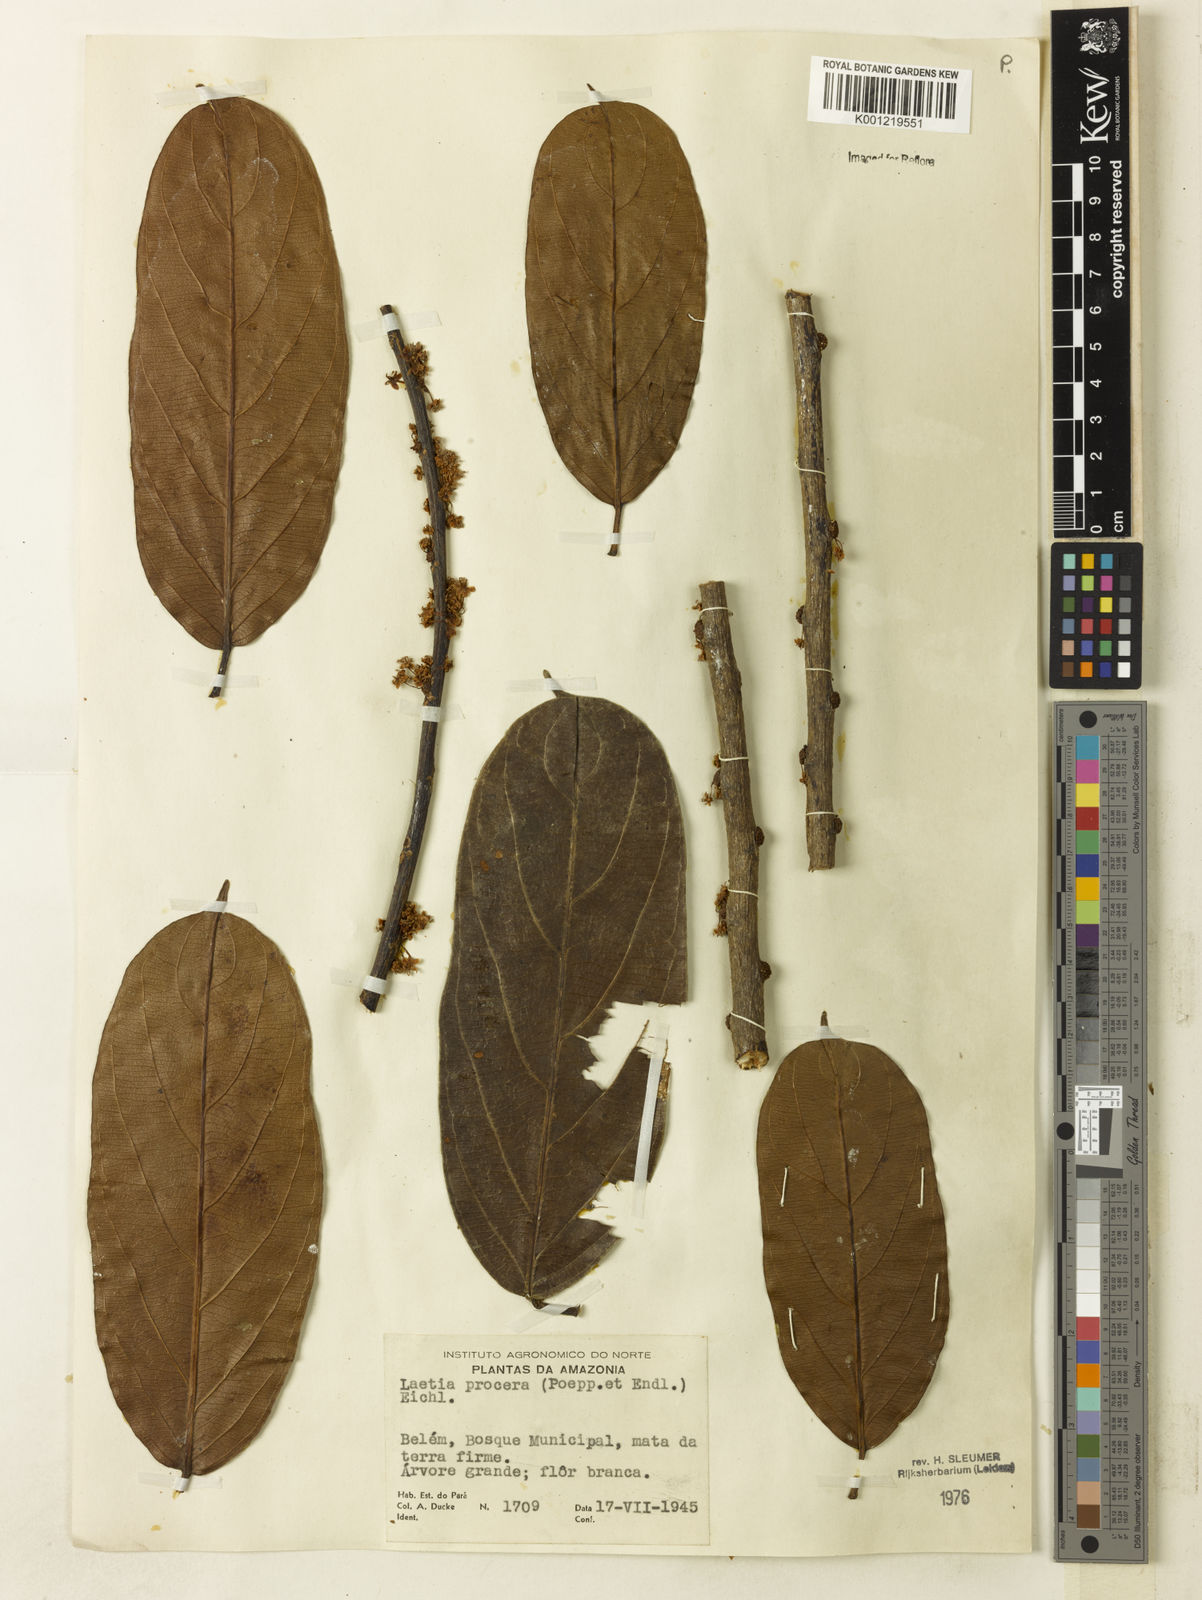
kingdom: Plantae
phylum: Tracheophyta
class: Magnoliopsida
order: Malpighiales
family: Salicaceae
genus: Casearia
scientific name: Casearia bicolor
